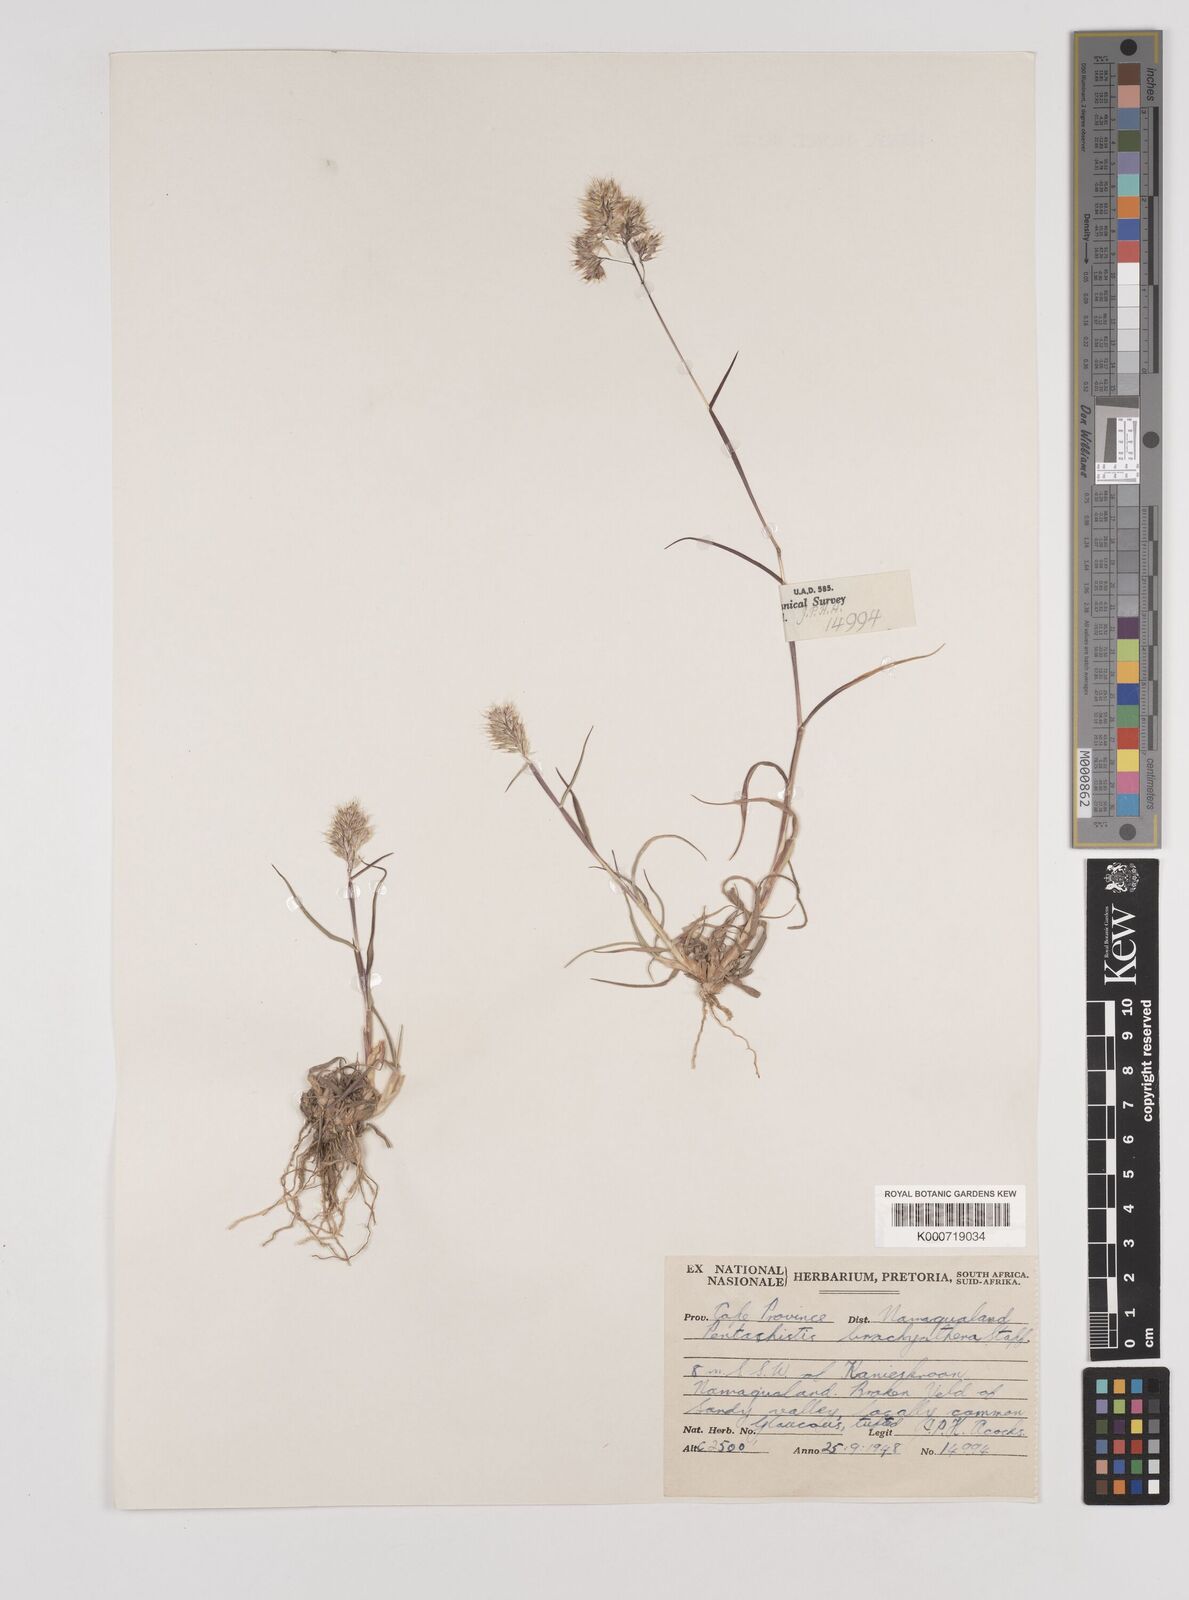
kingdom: Plantae
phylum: Tracheophyta
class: Liliopsida
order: Poales
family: Poaceae
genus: Pentameris
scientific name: Pentameris pallida
